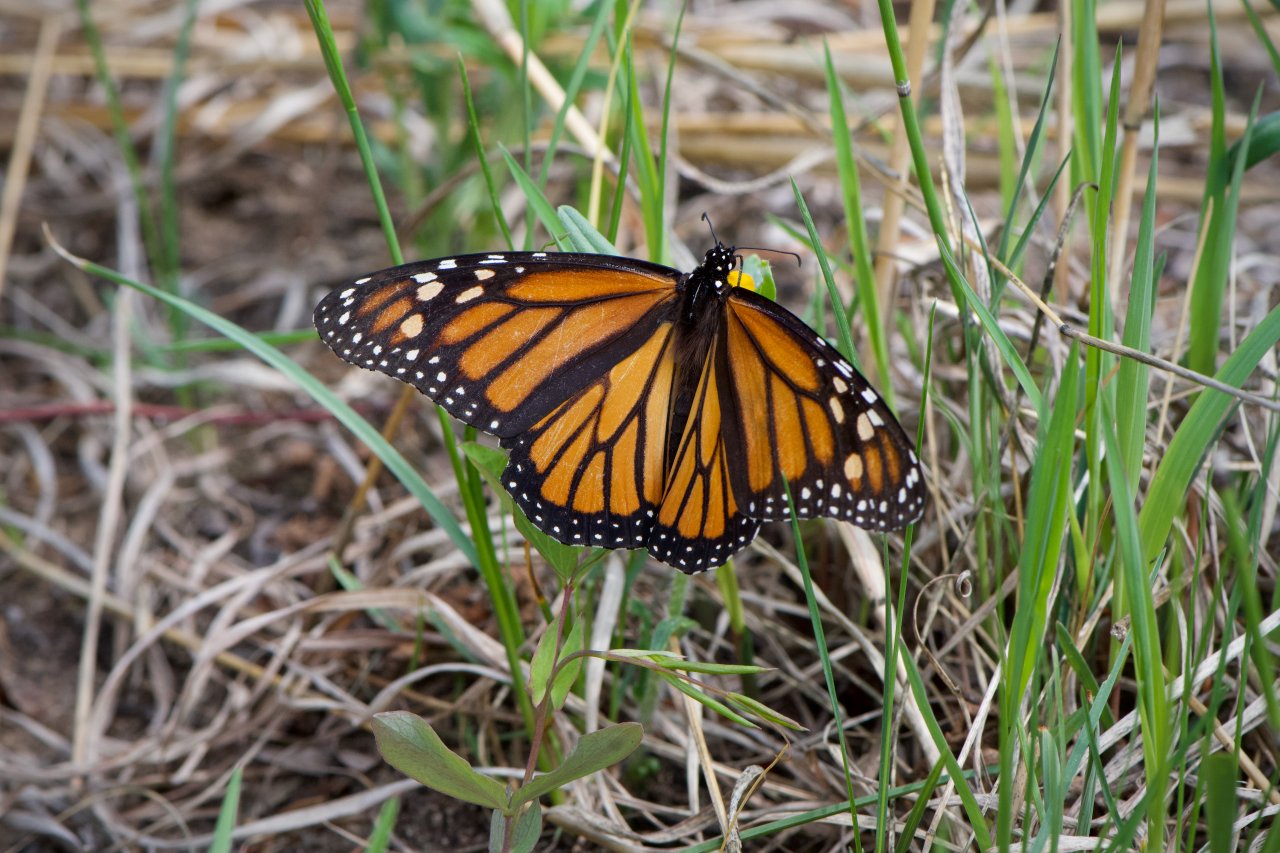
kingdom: Animalia
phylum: Arthropoda
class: Insecta
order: Lepidoptera
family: Nymphalidae
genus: Danaus
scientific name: Danaus plexippus
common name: Monarch
